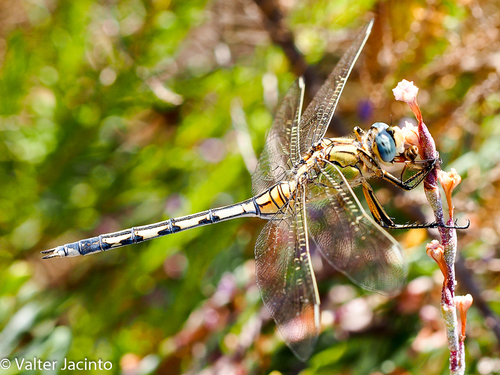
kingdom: Animalia
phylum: Arthropoda
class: Insecta
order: Odonata
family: Libellulidae
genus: Orthetrum
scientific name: Orthetrum trinacria
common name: Long skimmer
